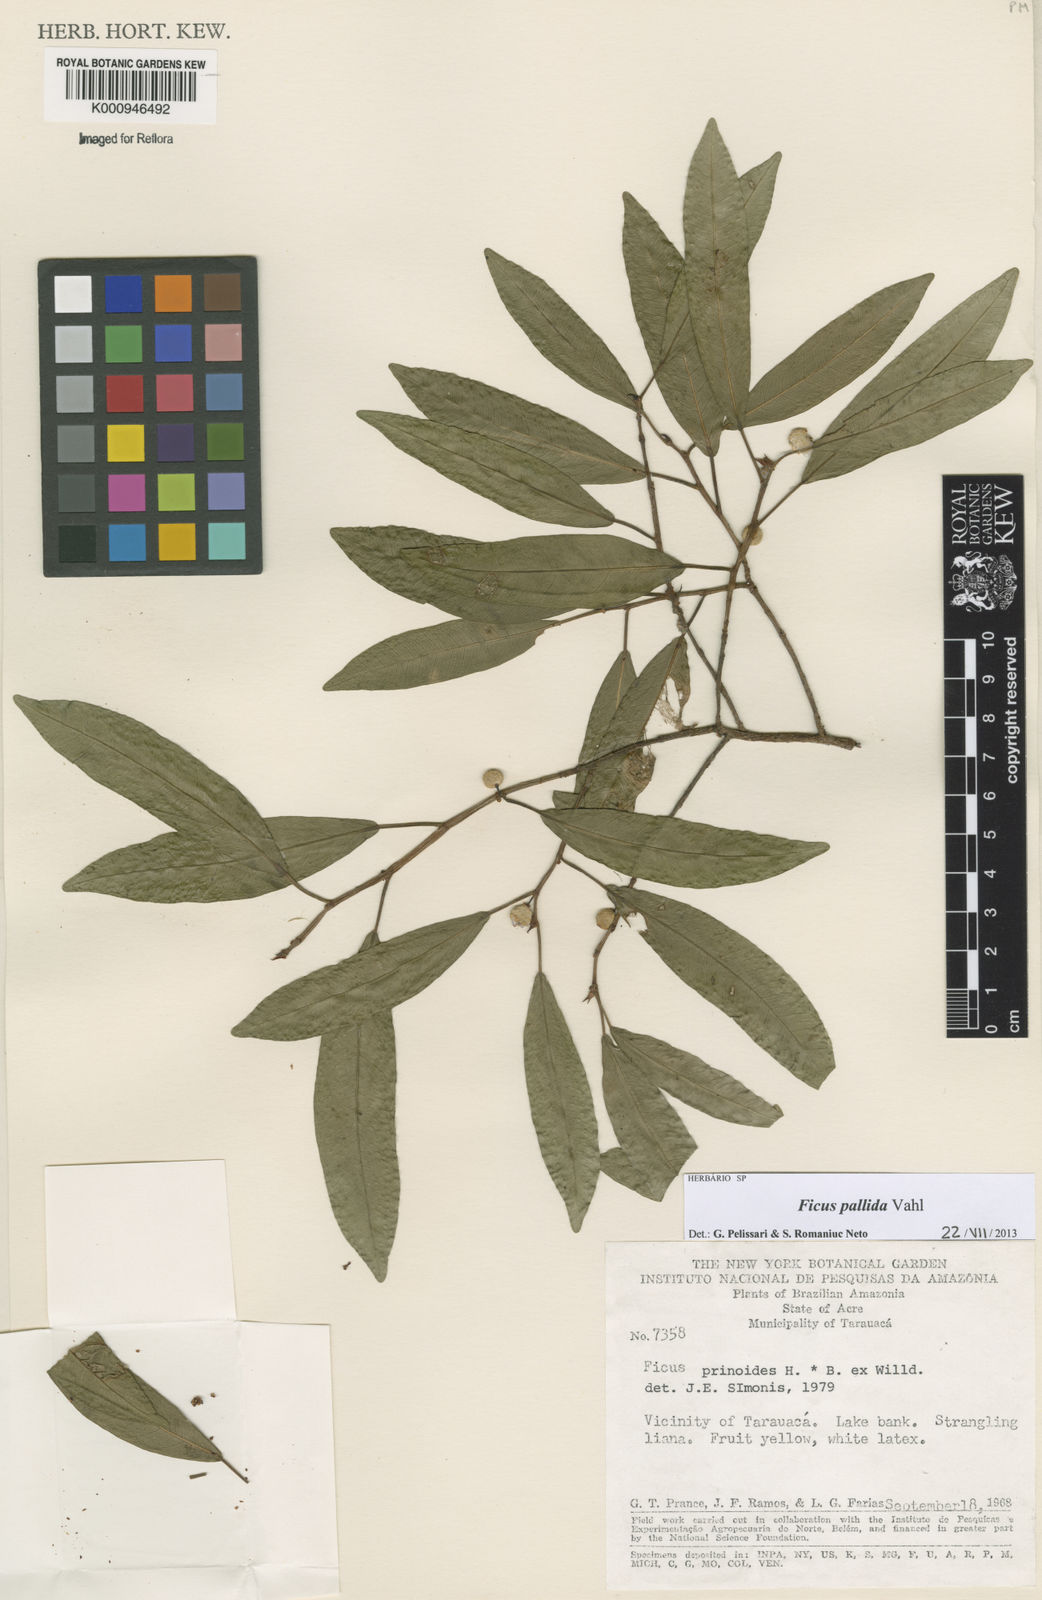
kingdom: Plantae
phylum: Tracheophyta
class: Magnoliopsida
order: Rosales
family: Moraceae
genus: Ficus
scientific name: Ficus pallida
